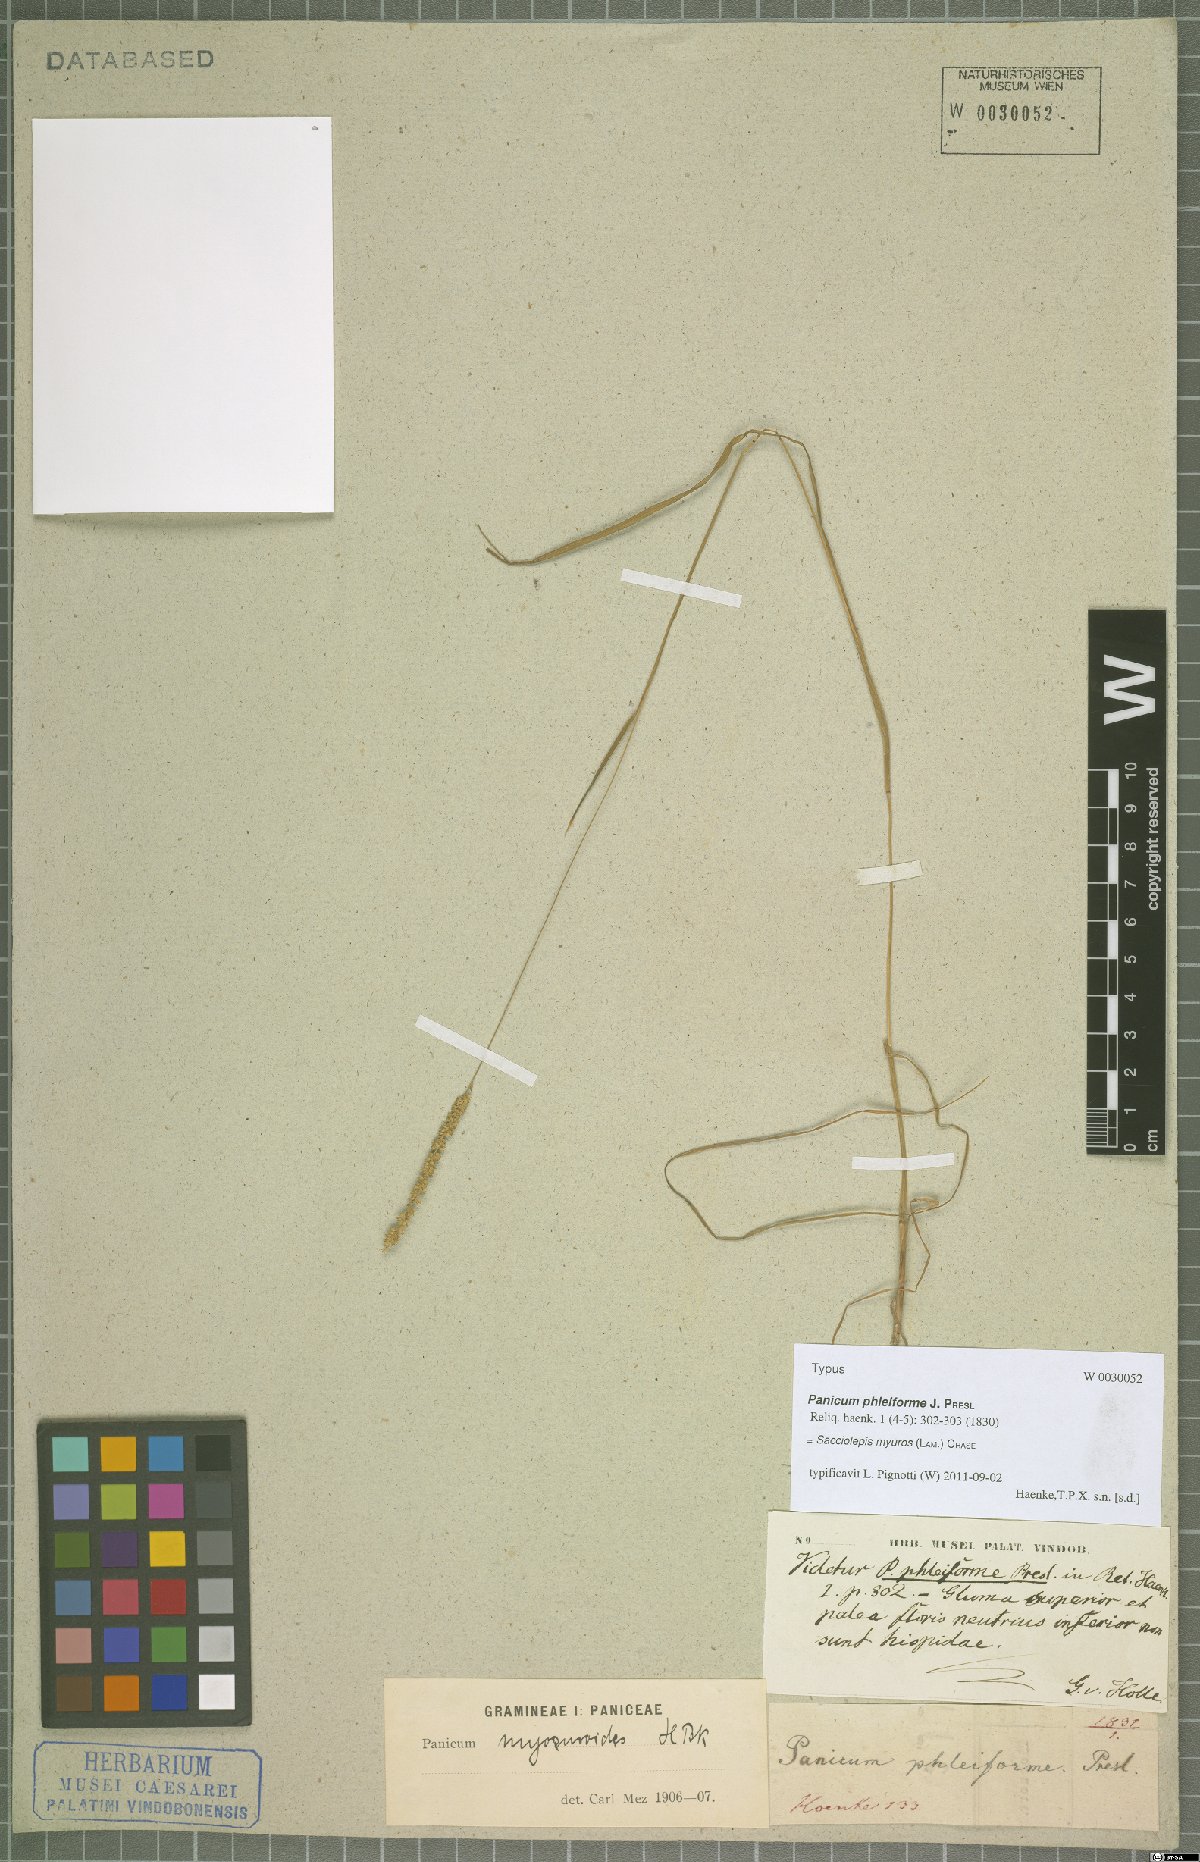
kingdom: Plantae
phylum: Tracheophyta
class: Liliopsida
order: Poales
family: Poaceae
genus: Sacciolepis
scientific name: Sacciolepis myuros
